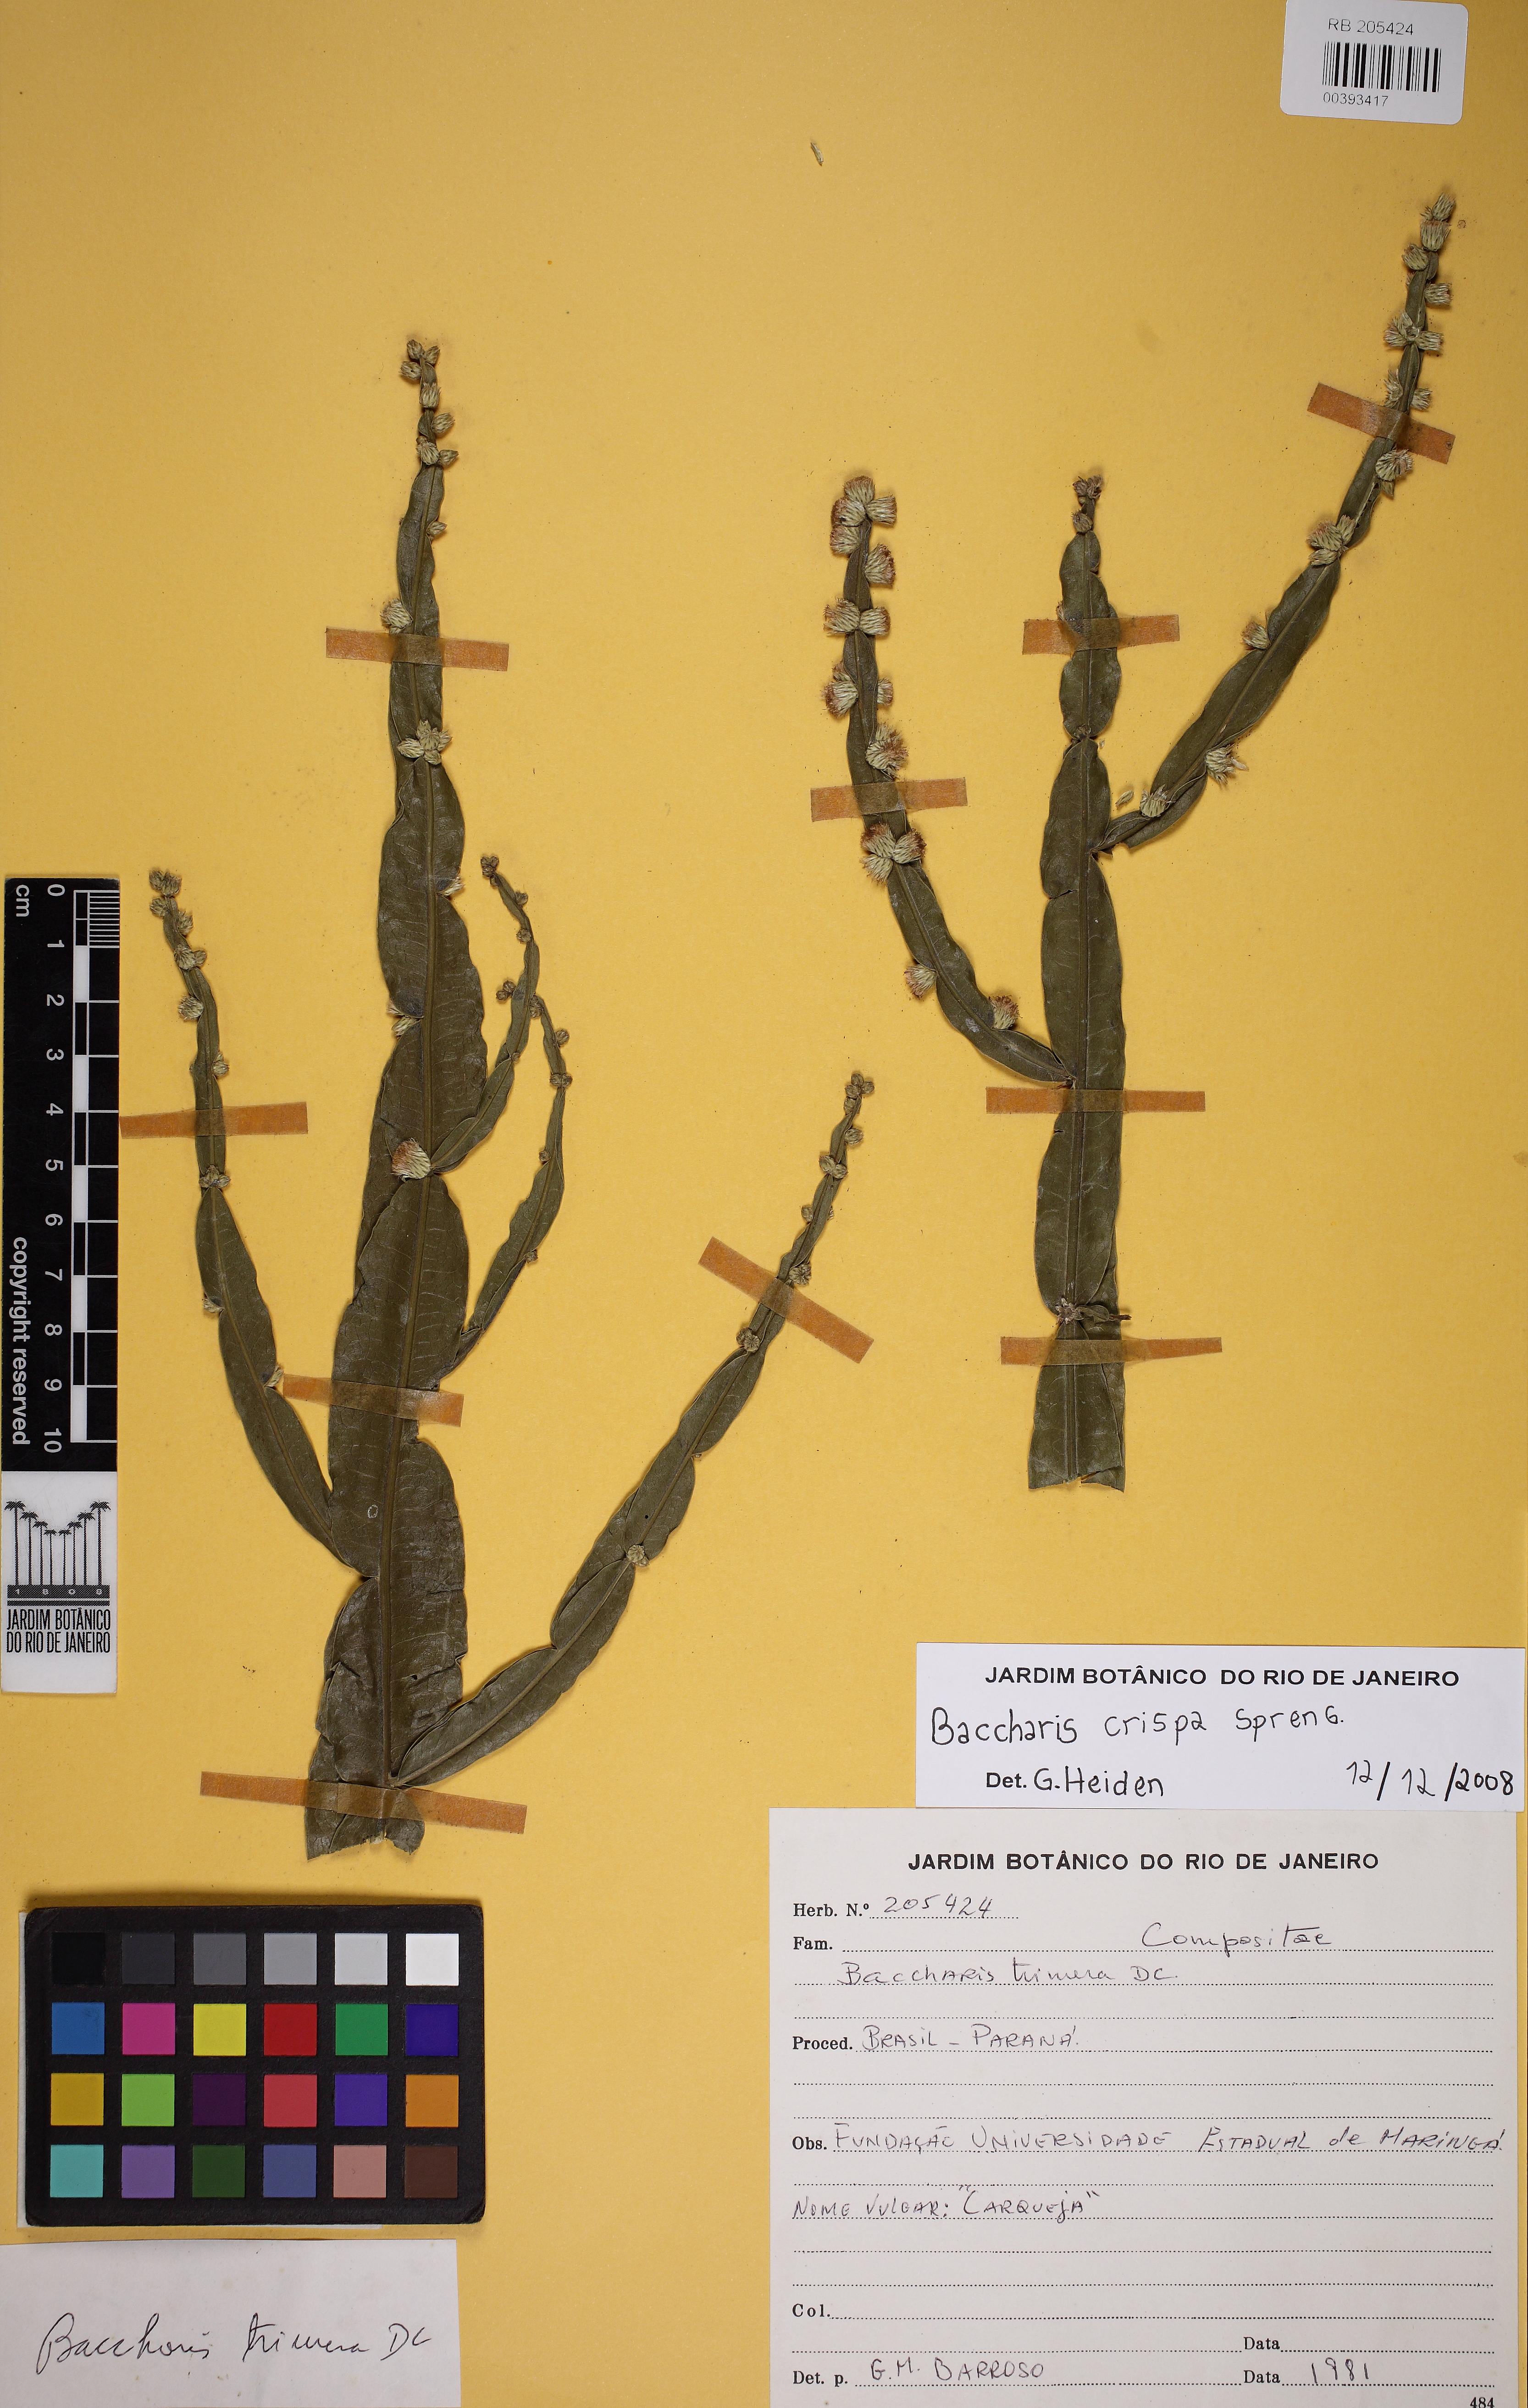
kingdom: Plantae
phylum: Tracheophyta
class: Magnoliopsida
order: Asterales
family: Asteraceae
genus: Baccharis
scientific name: Baccharis crispa
